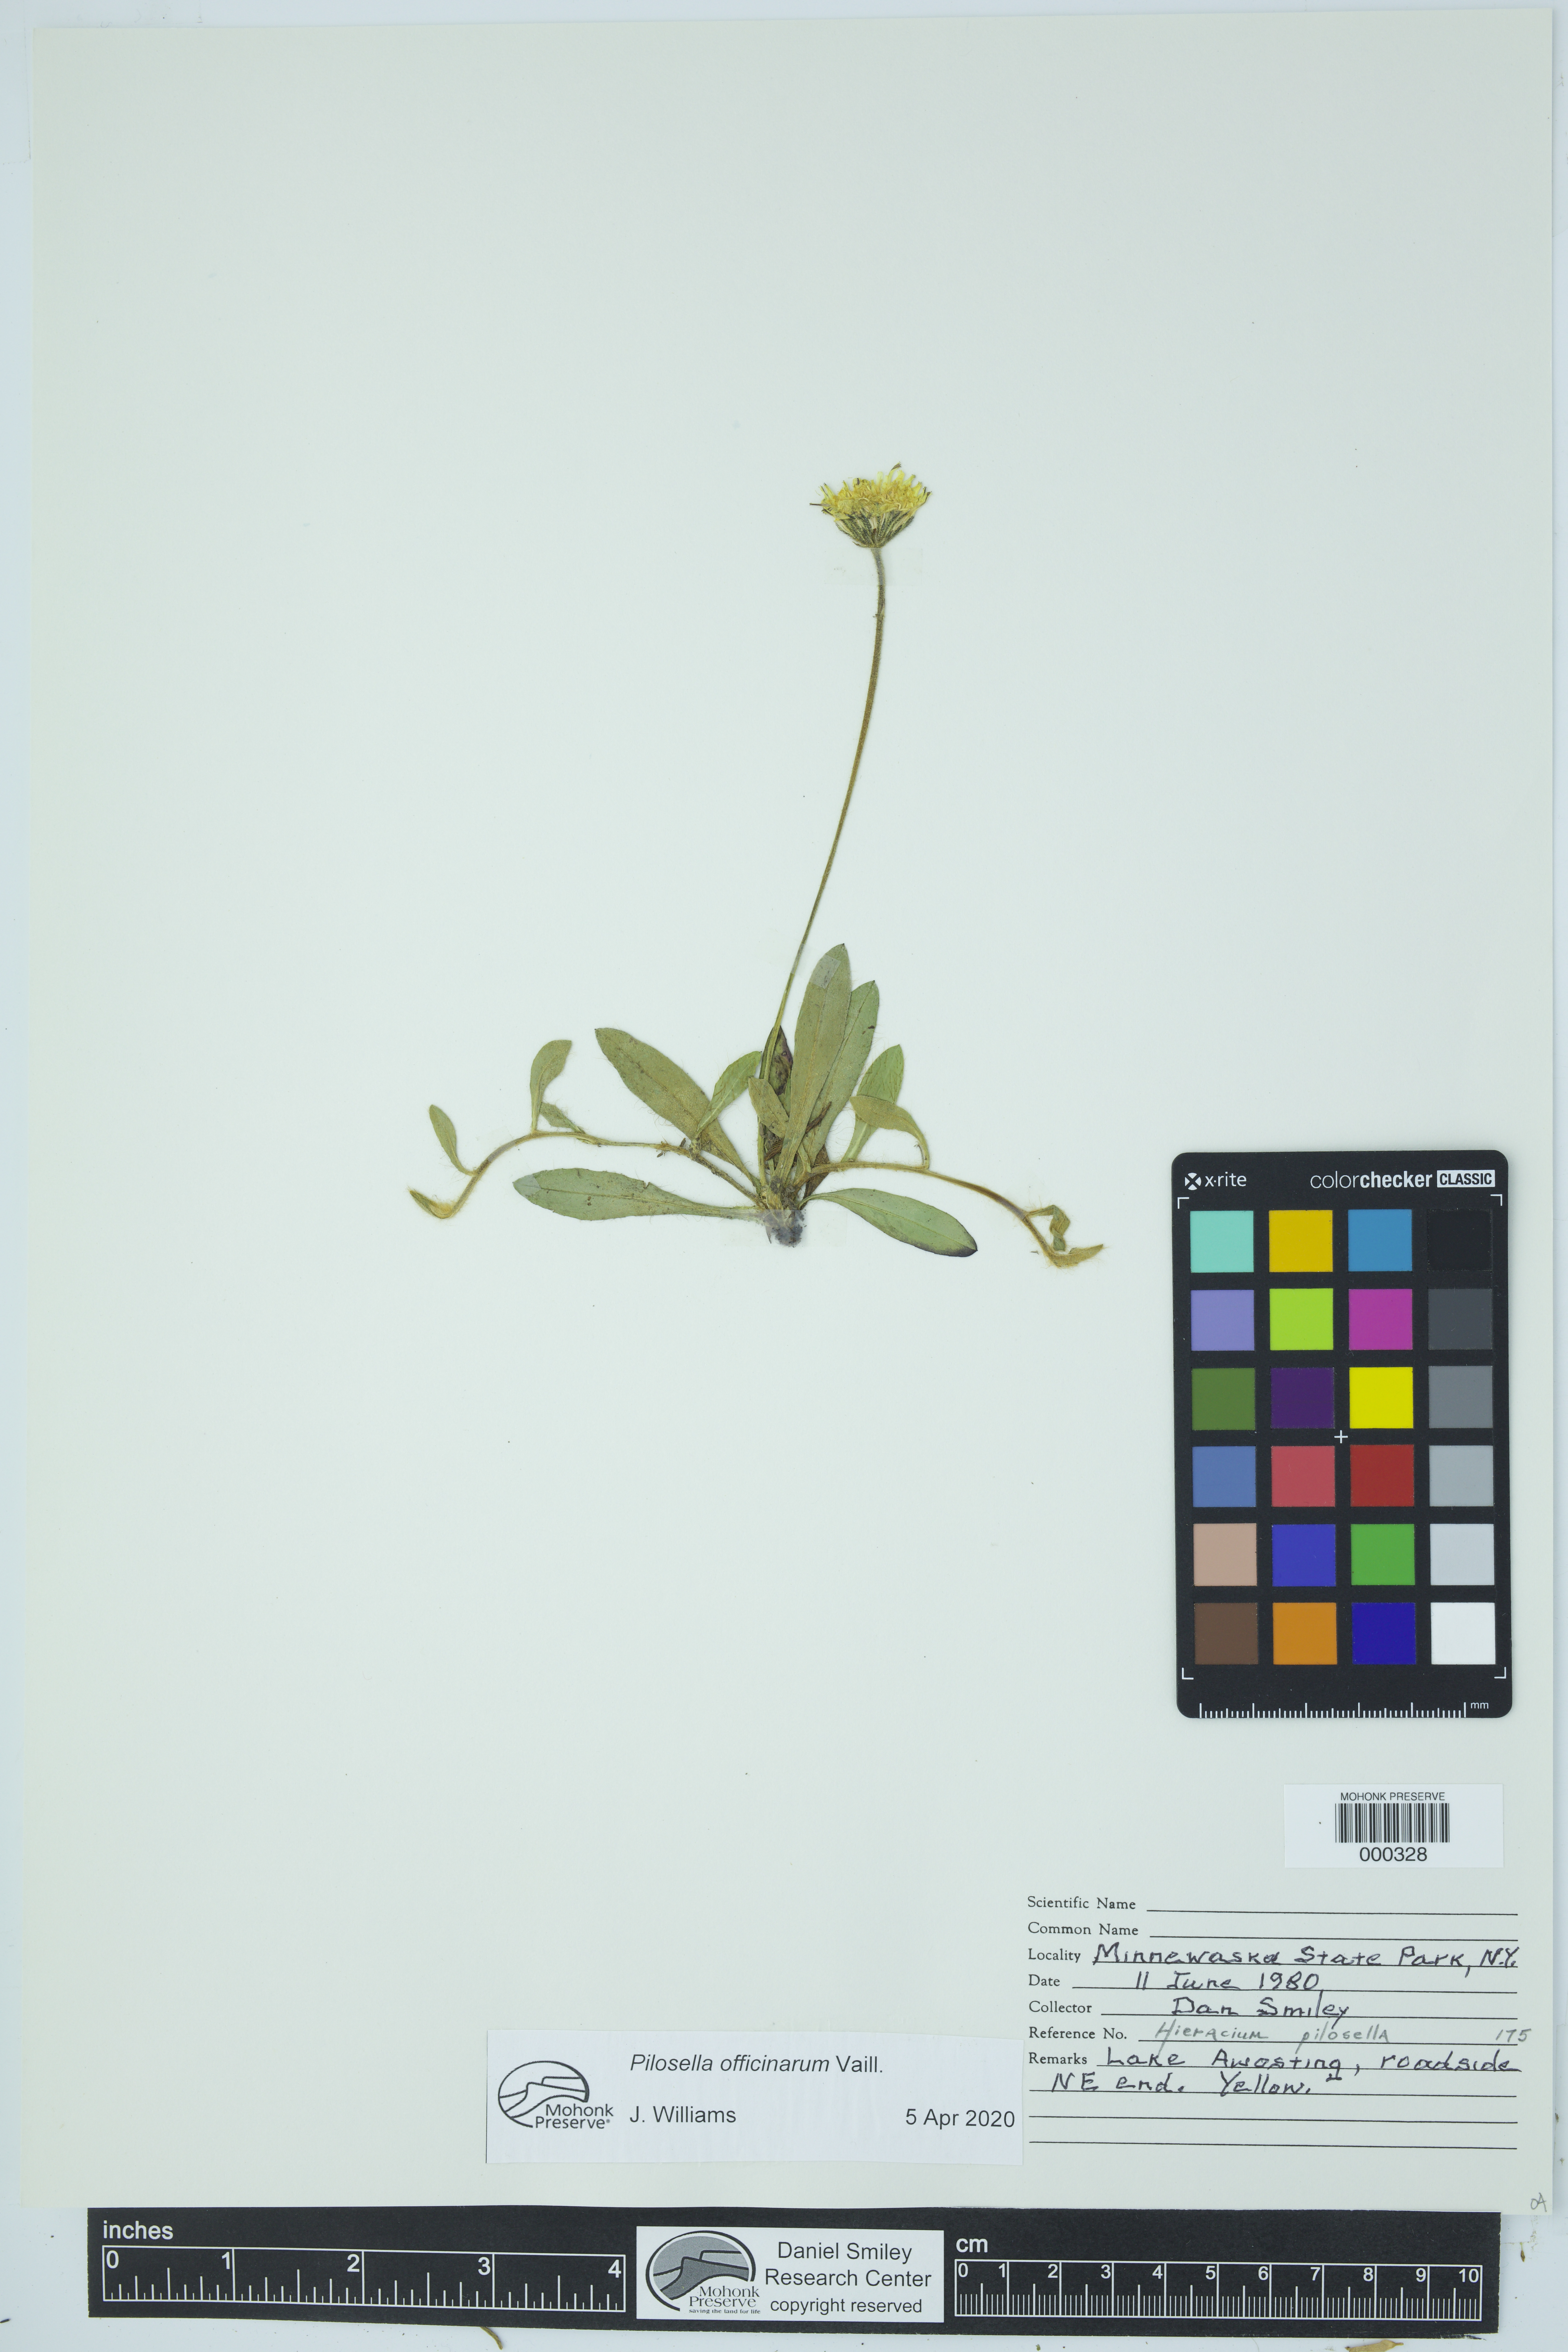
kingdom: Plantae
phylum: Tracheophyta
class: Magnoliopsida
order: Asterales
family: Asteraceae
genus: Pilosella
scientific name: Pilosella officinarum
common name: Mouse-ear hawkweed
